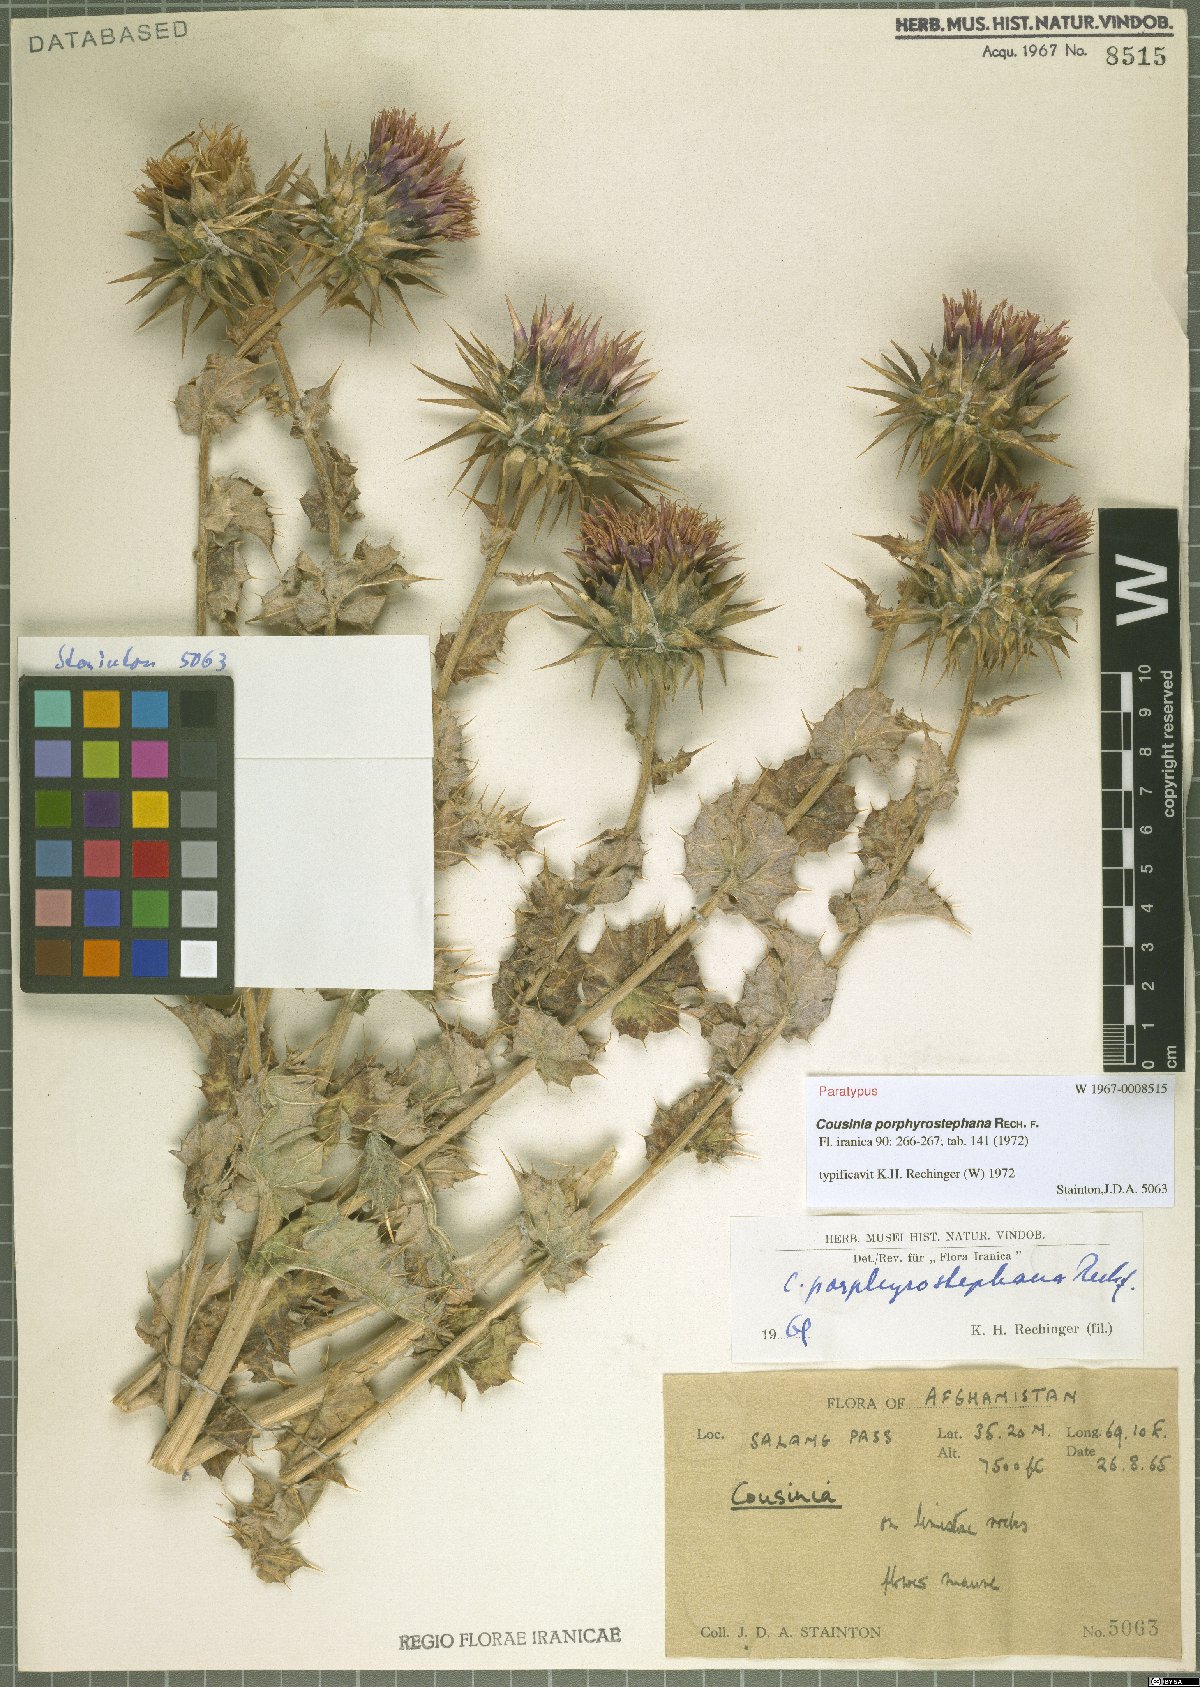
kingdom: Plantae
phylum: Tracheophyta
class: Magnoliopsida
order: Asterales
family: Asteraceae
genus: Cousinia
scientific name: Cousinia porphyrostephana
